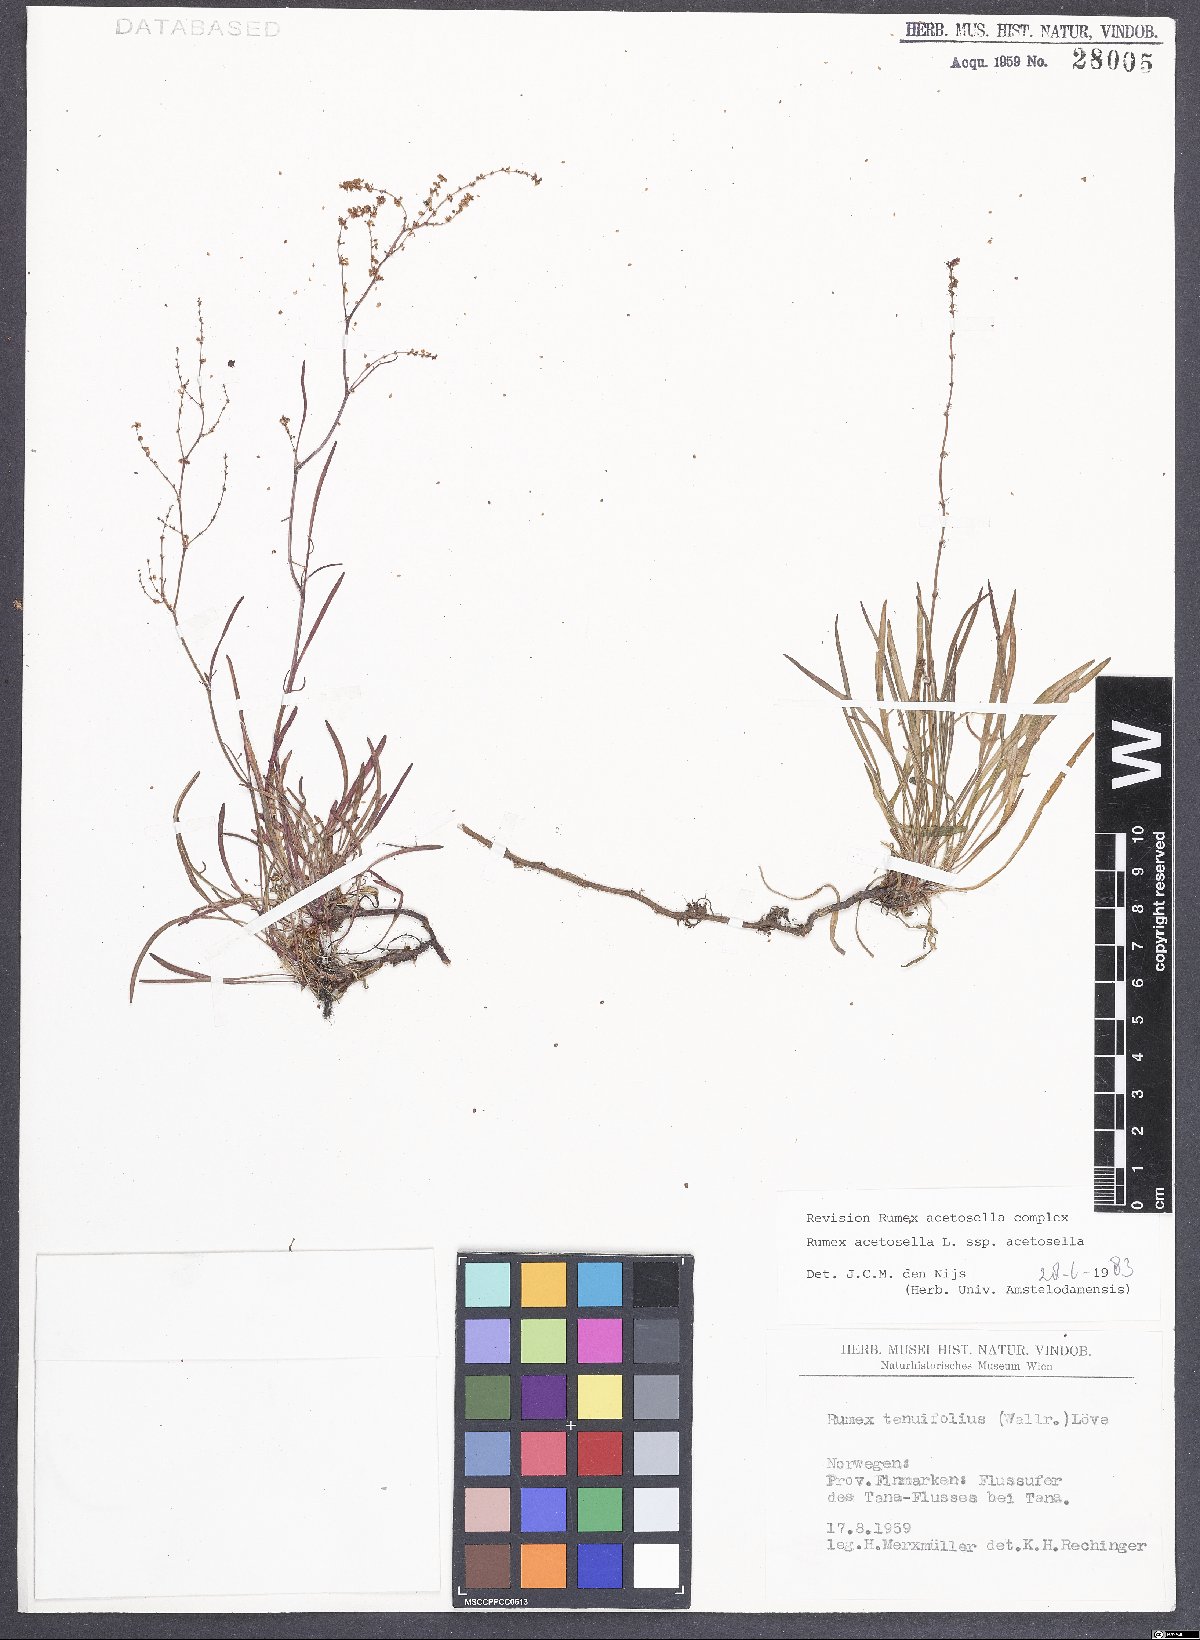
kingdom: Plantae
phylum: Tracheophyta
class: Magnoliopsida
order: Caryophyllales
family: Polygonaceae
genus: Rumex
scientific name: Rumex acetosella
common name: Common sheep sorrel
